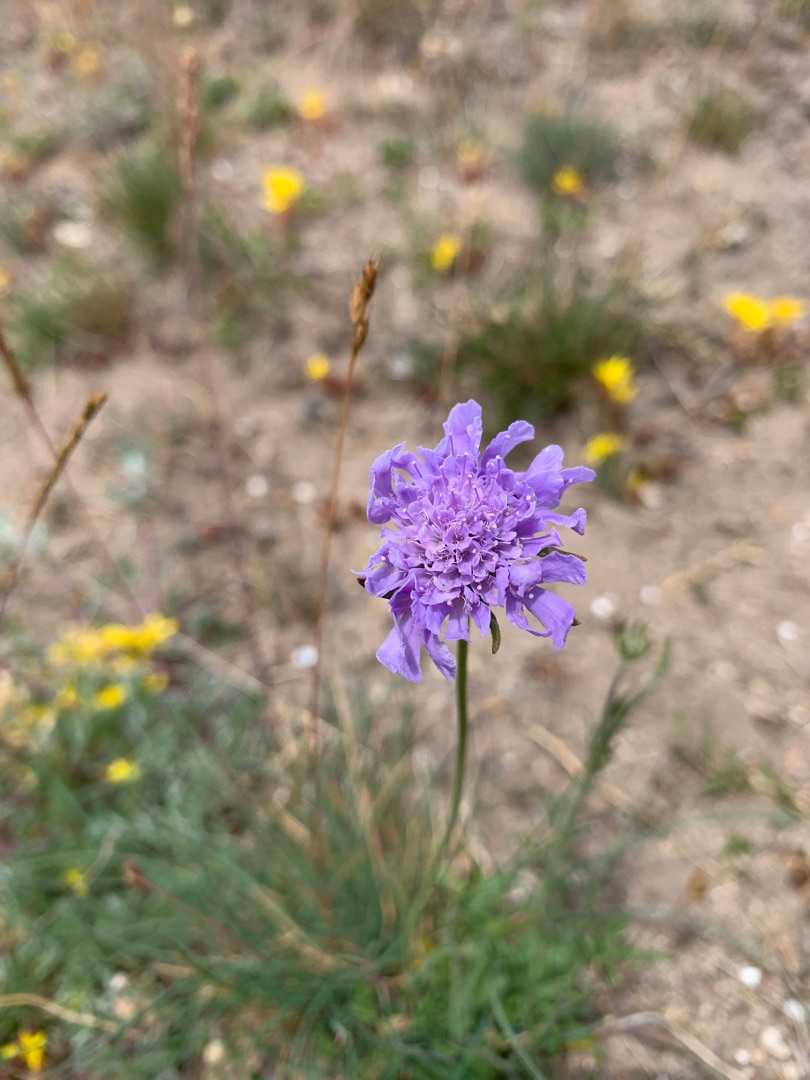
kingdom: Plantae
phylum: Tracheophyta
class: Magnoliopsida
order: Dipsacales
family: Caprifoliaceae
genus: Scabiosa
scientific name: Scabiosa columbaria
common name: Due-skabiose
